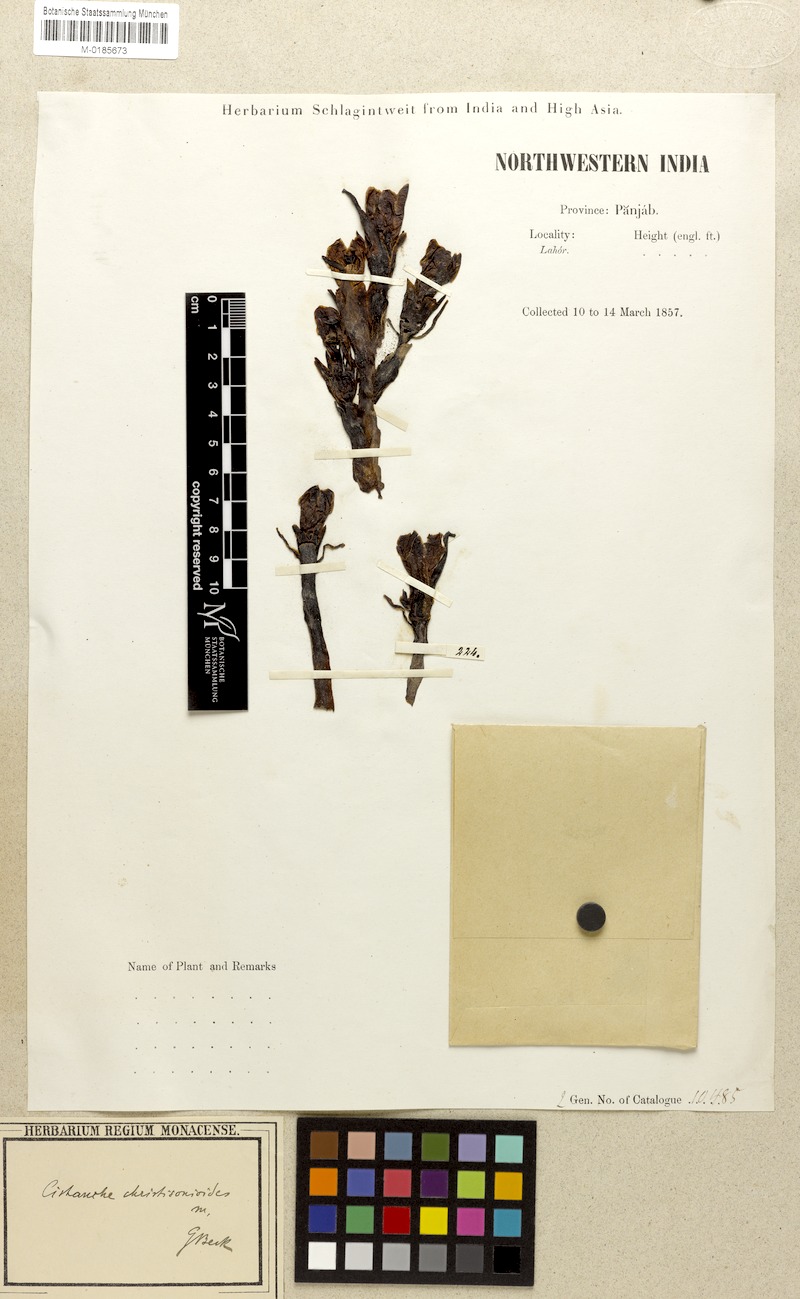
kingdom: Plantae
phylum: Tracheophyta
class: Magnoliopsida
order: Lamiales
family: Orobanchaceae
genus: Cistanche
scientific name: Cistanche flava
